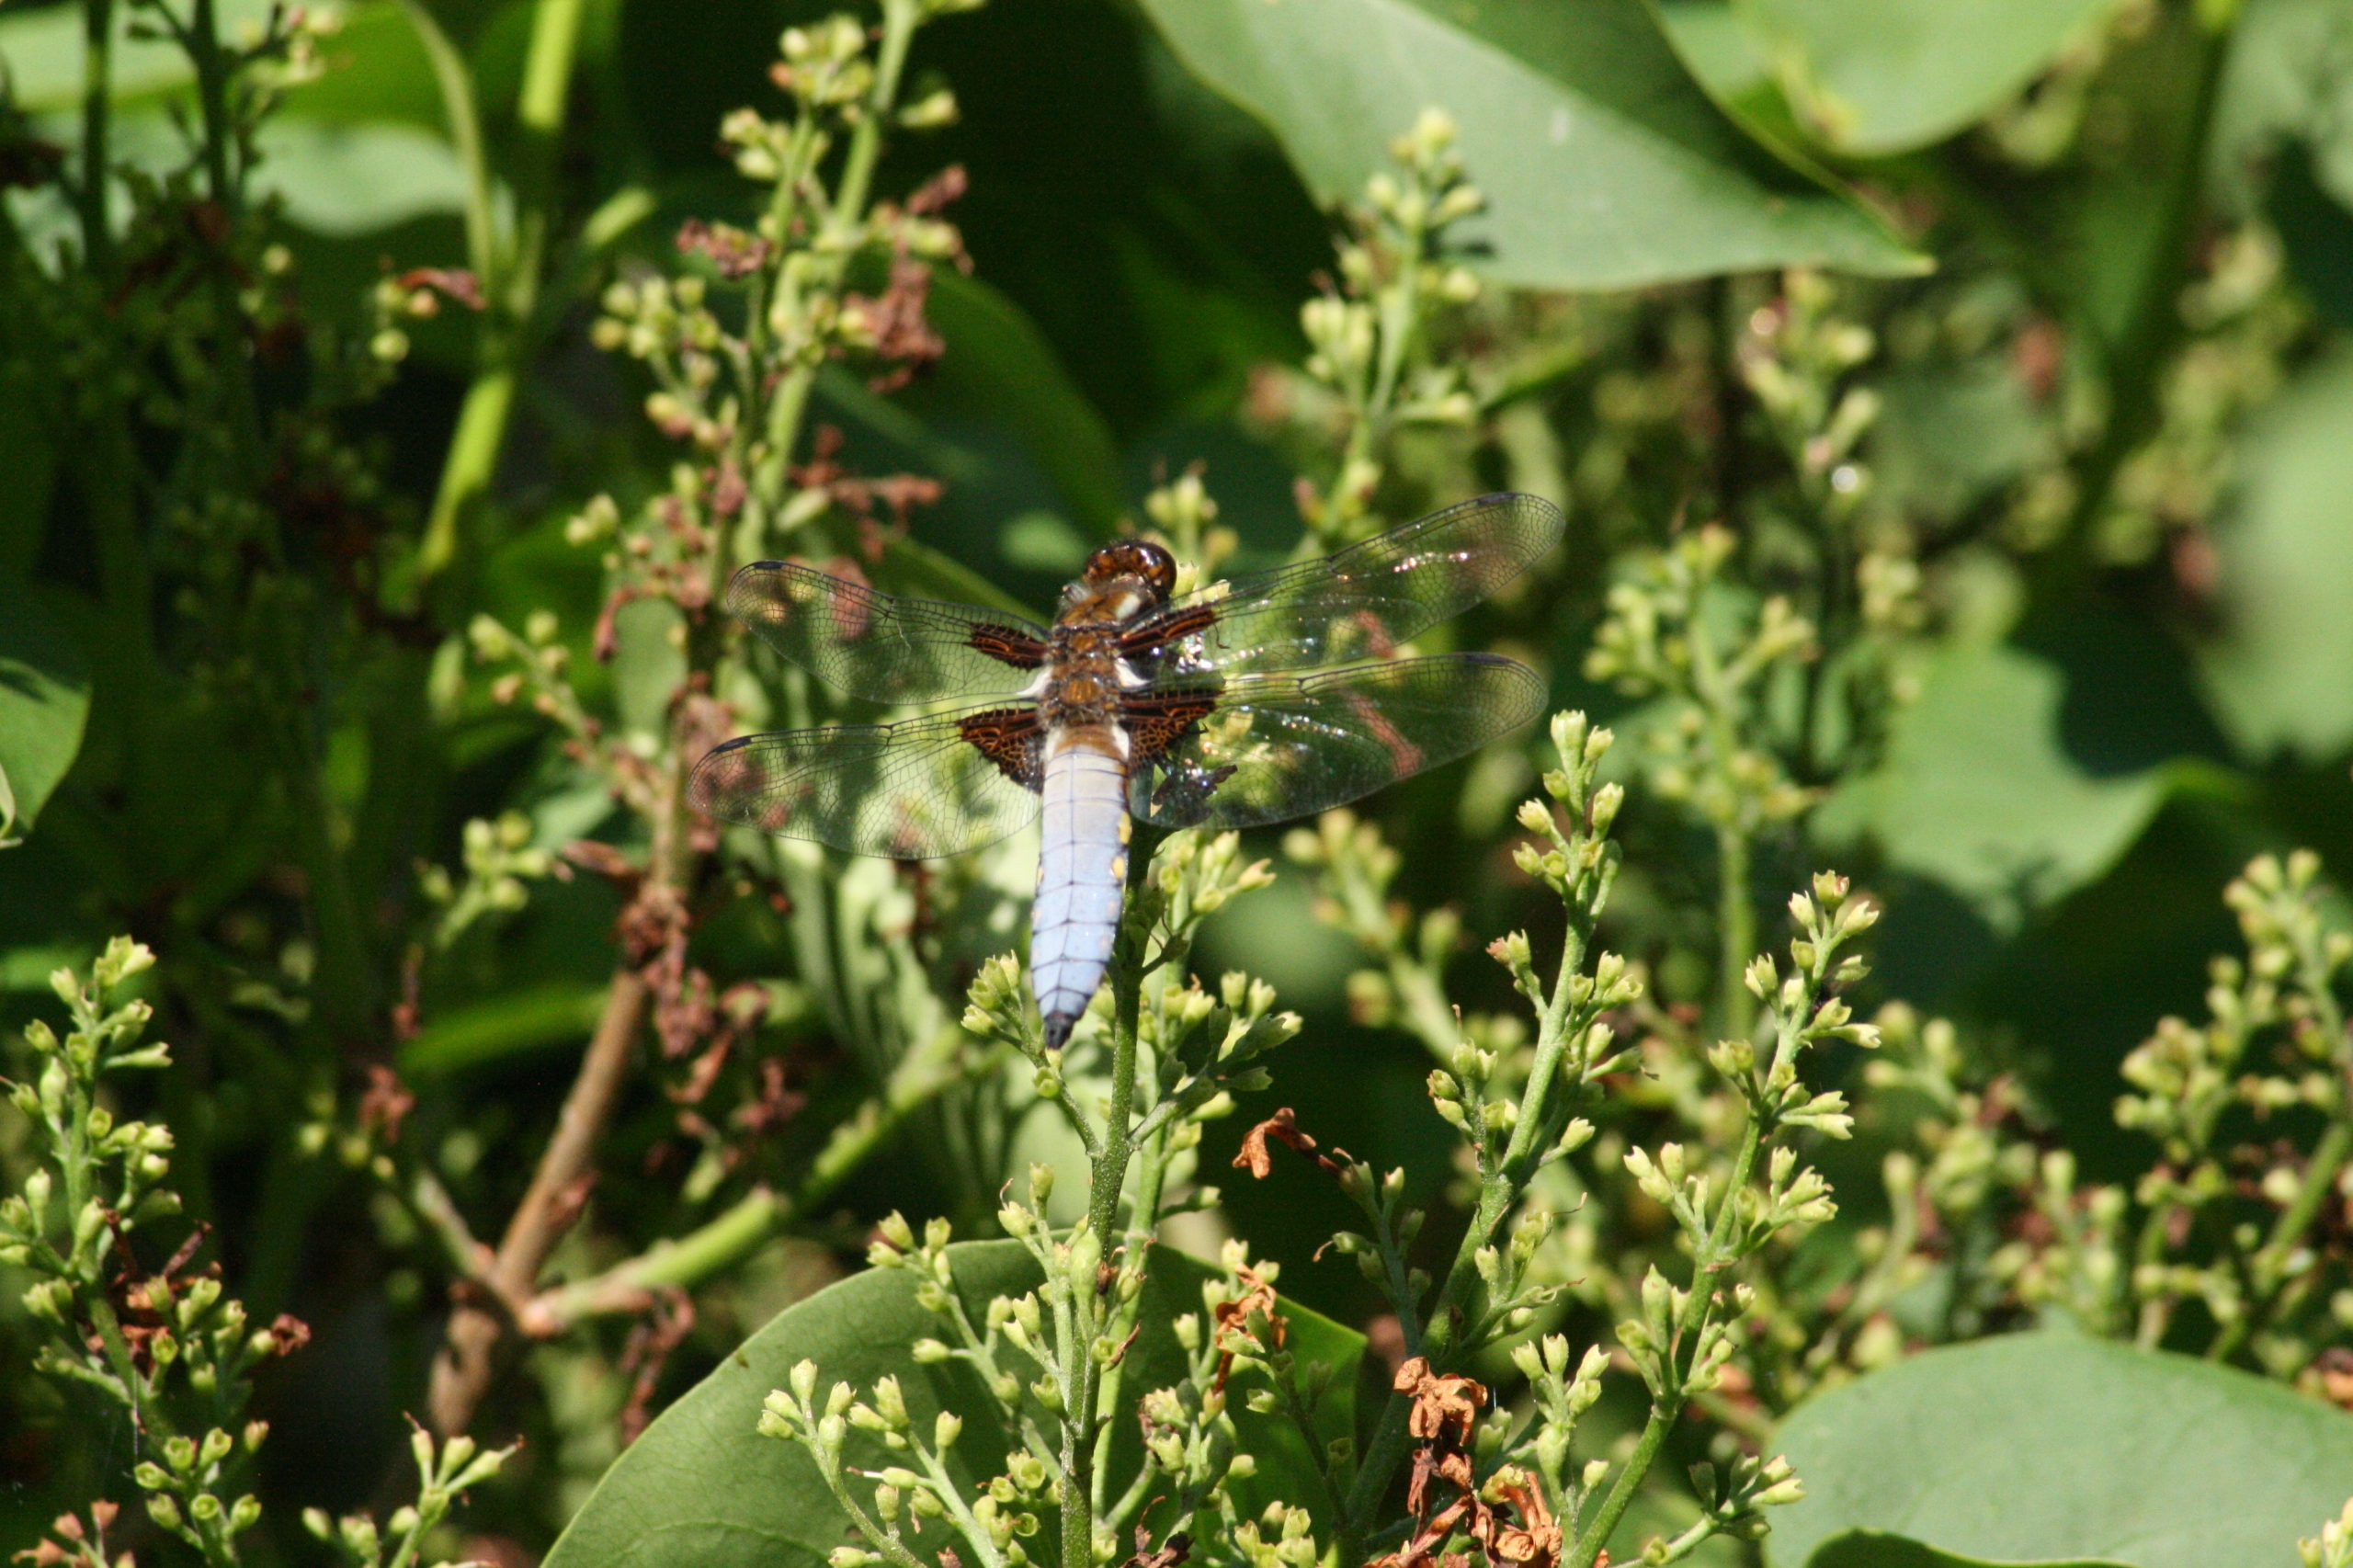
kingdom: Animalia
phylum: Arthropoda
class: Insecta
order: Odonata
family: Libellulidae
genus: Libellula
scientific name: Libellula depressa
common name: Blå libel
